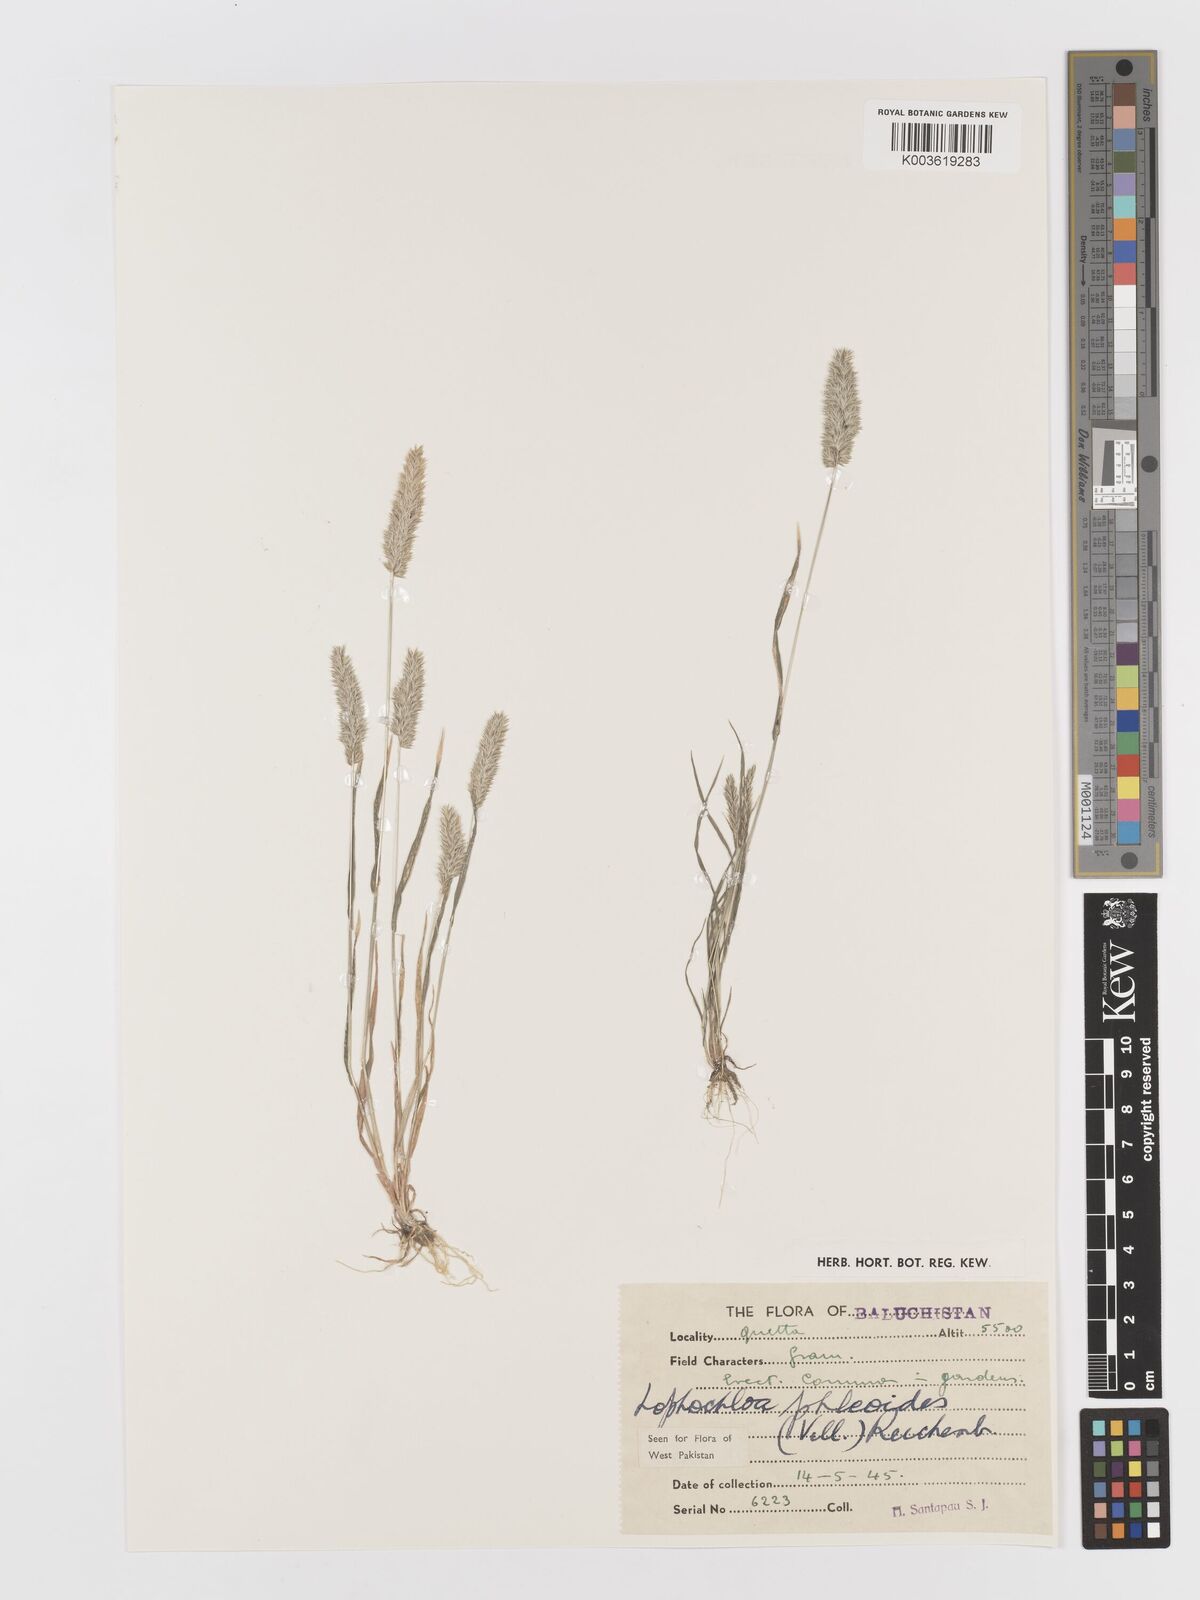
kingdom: Plantae
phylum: Tracheophyta
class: Liliopsida
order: Poales
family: Poaceae
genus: Rostraria
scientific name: Rostraria cristata
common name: Mediterranean hair-grass
